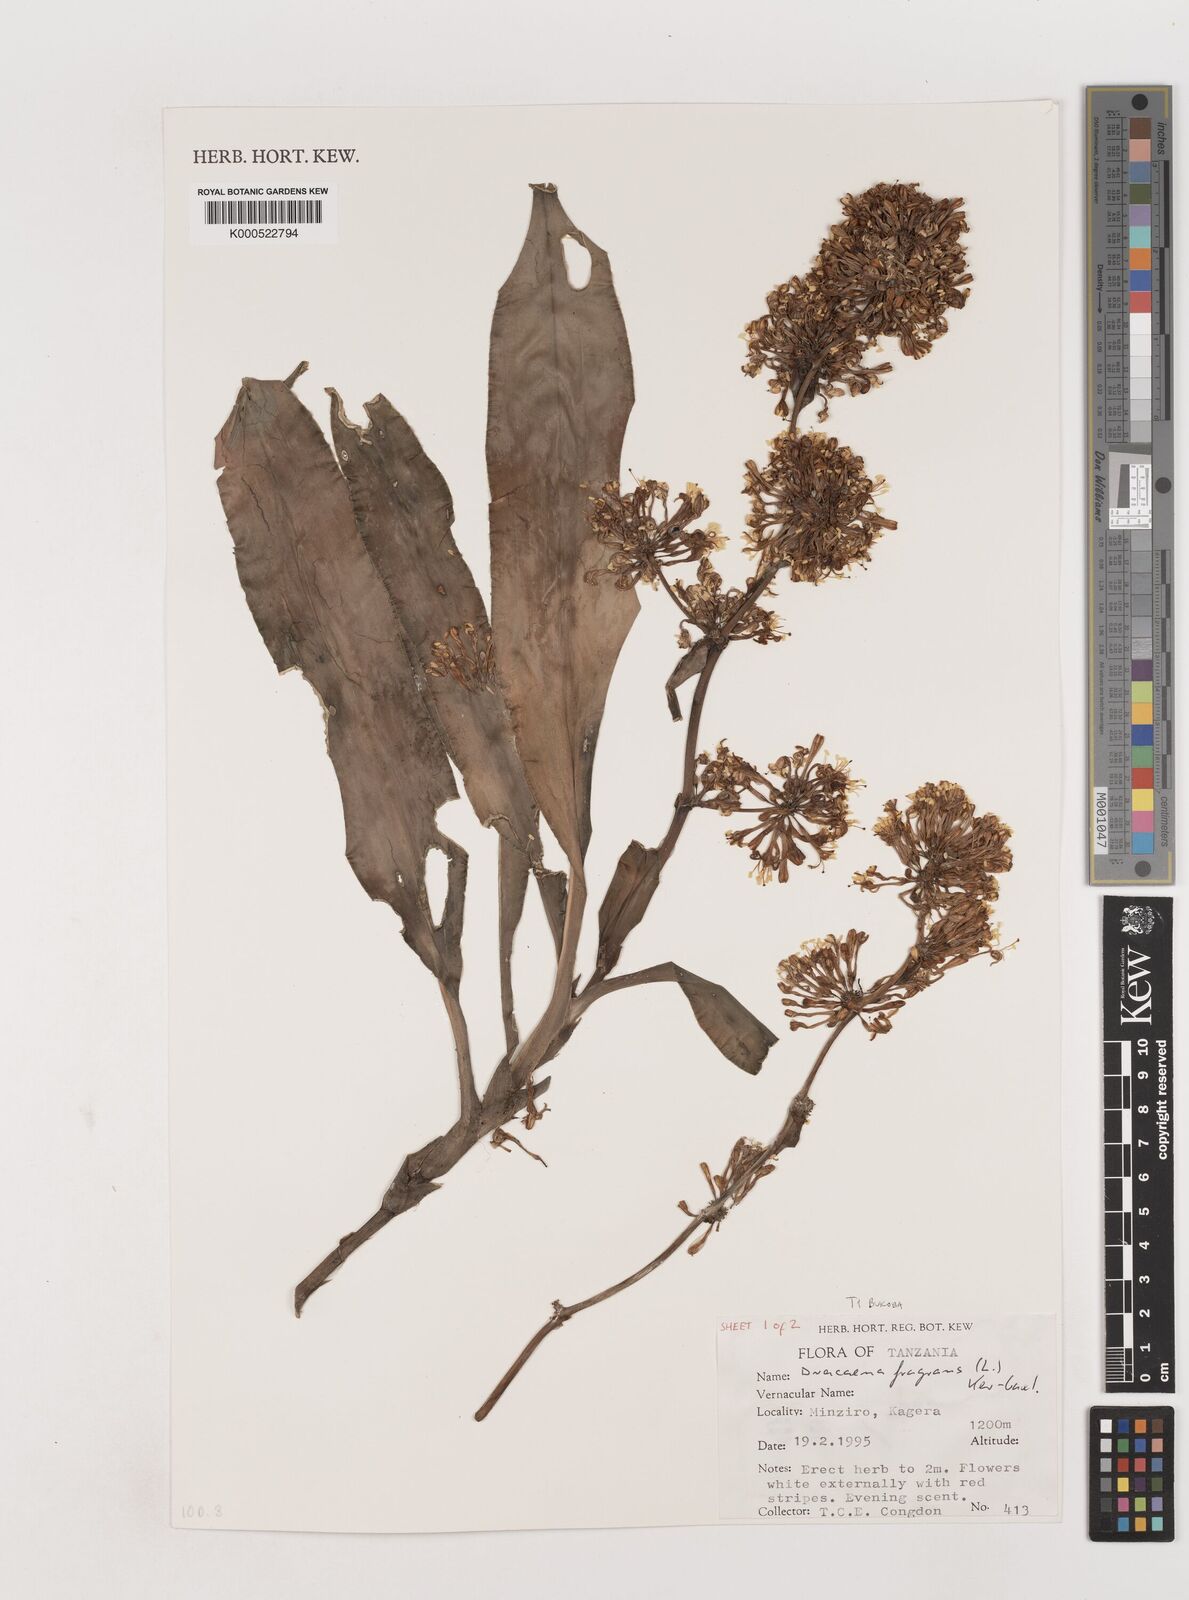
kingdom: Plantae
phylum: Tracheophyta
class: Liliopsida
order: Asparagales
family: Asparagaceae
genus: Dracaena
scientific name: Dracaena fragrans
